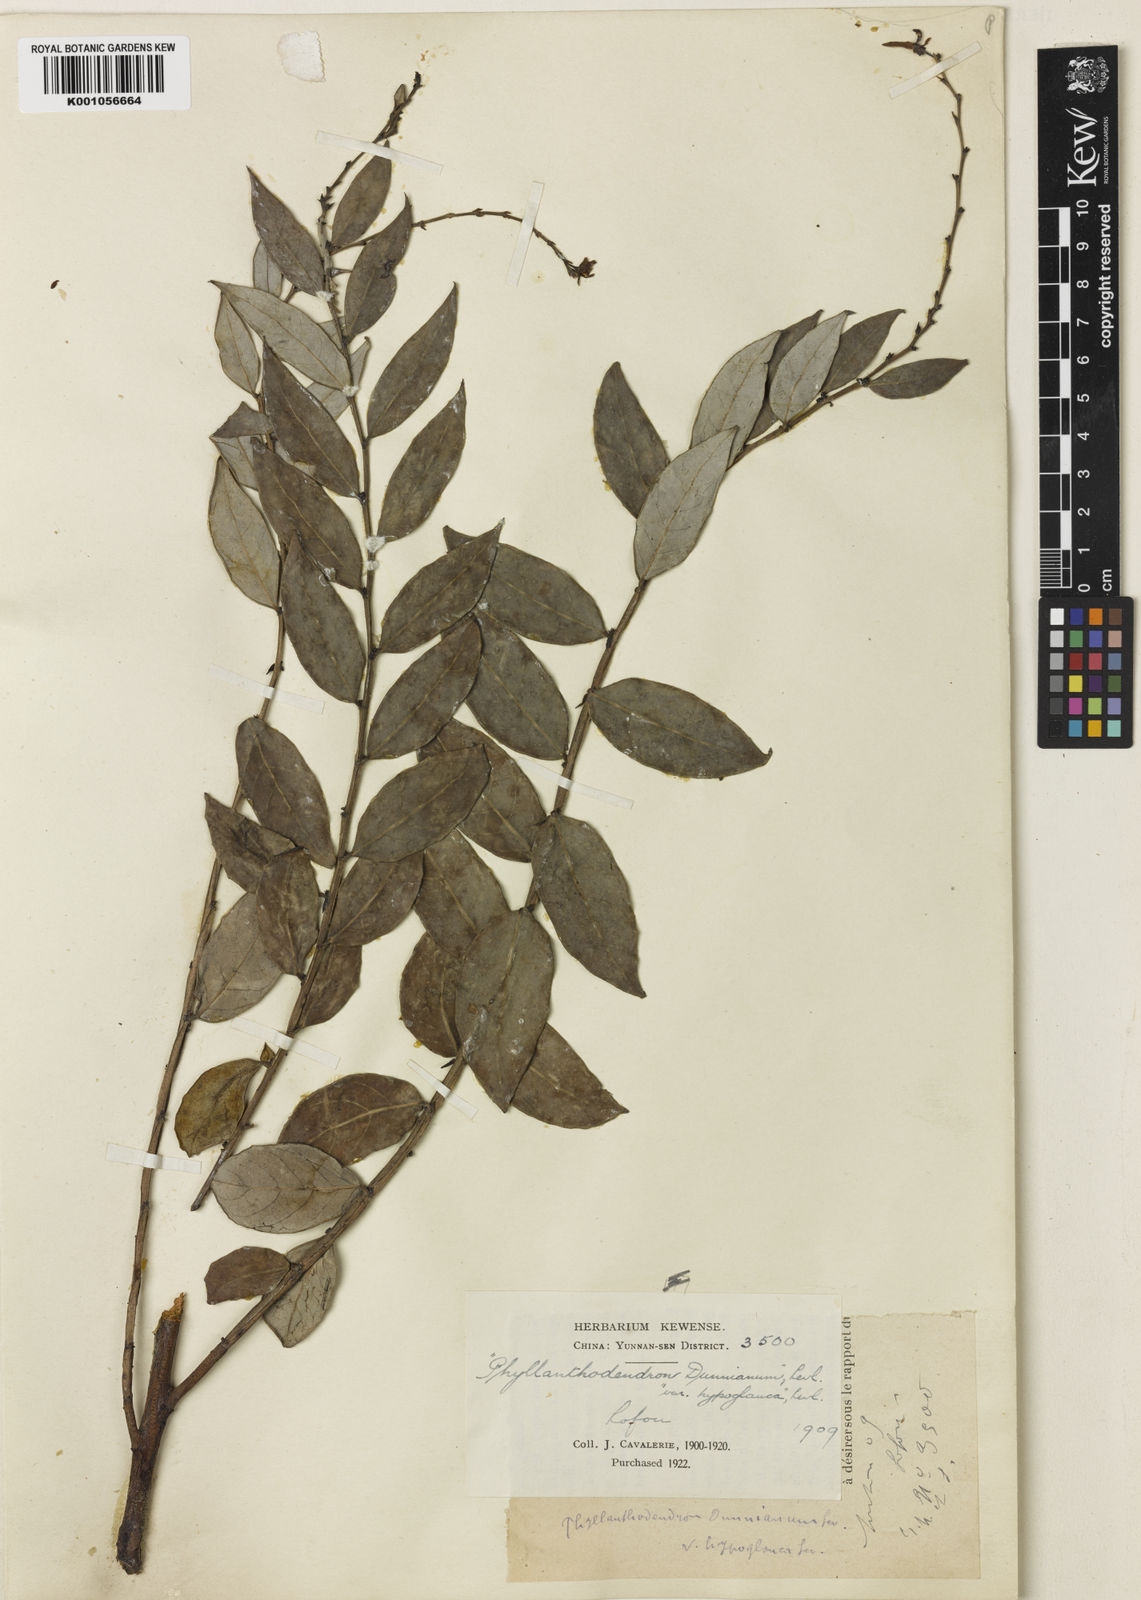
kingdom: Plantae
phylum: Tracheophyta
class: Magnoliopsida
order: Malpighiales
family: Phyllanthaceae
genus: Phyllanthus
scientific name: Phyllanthus
